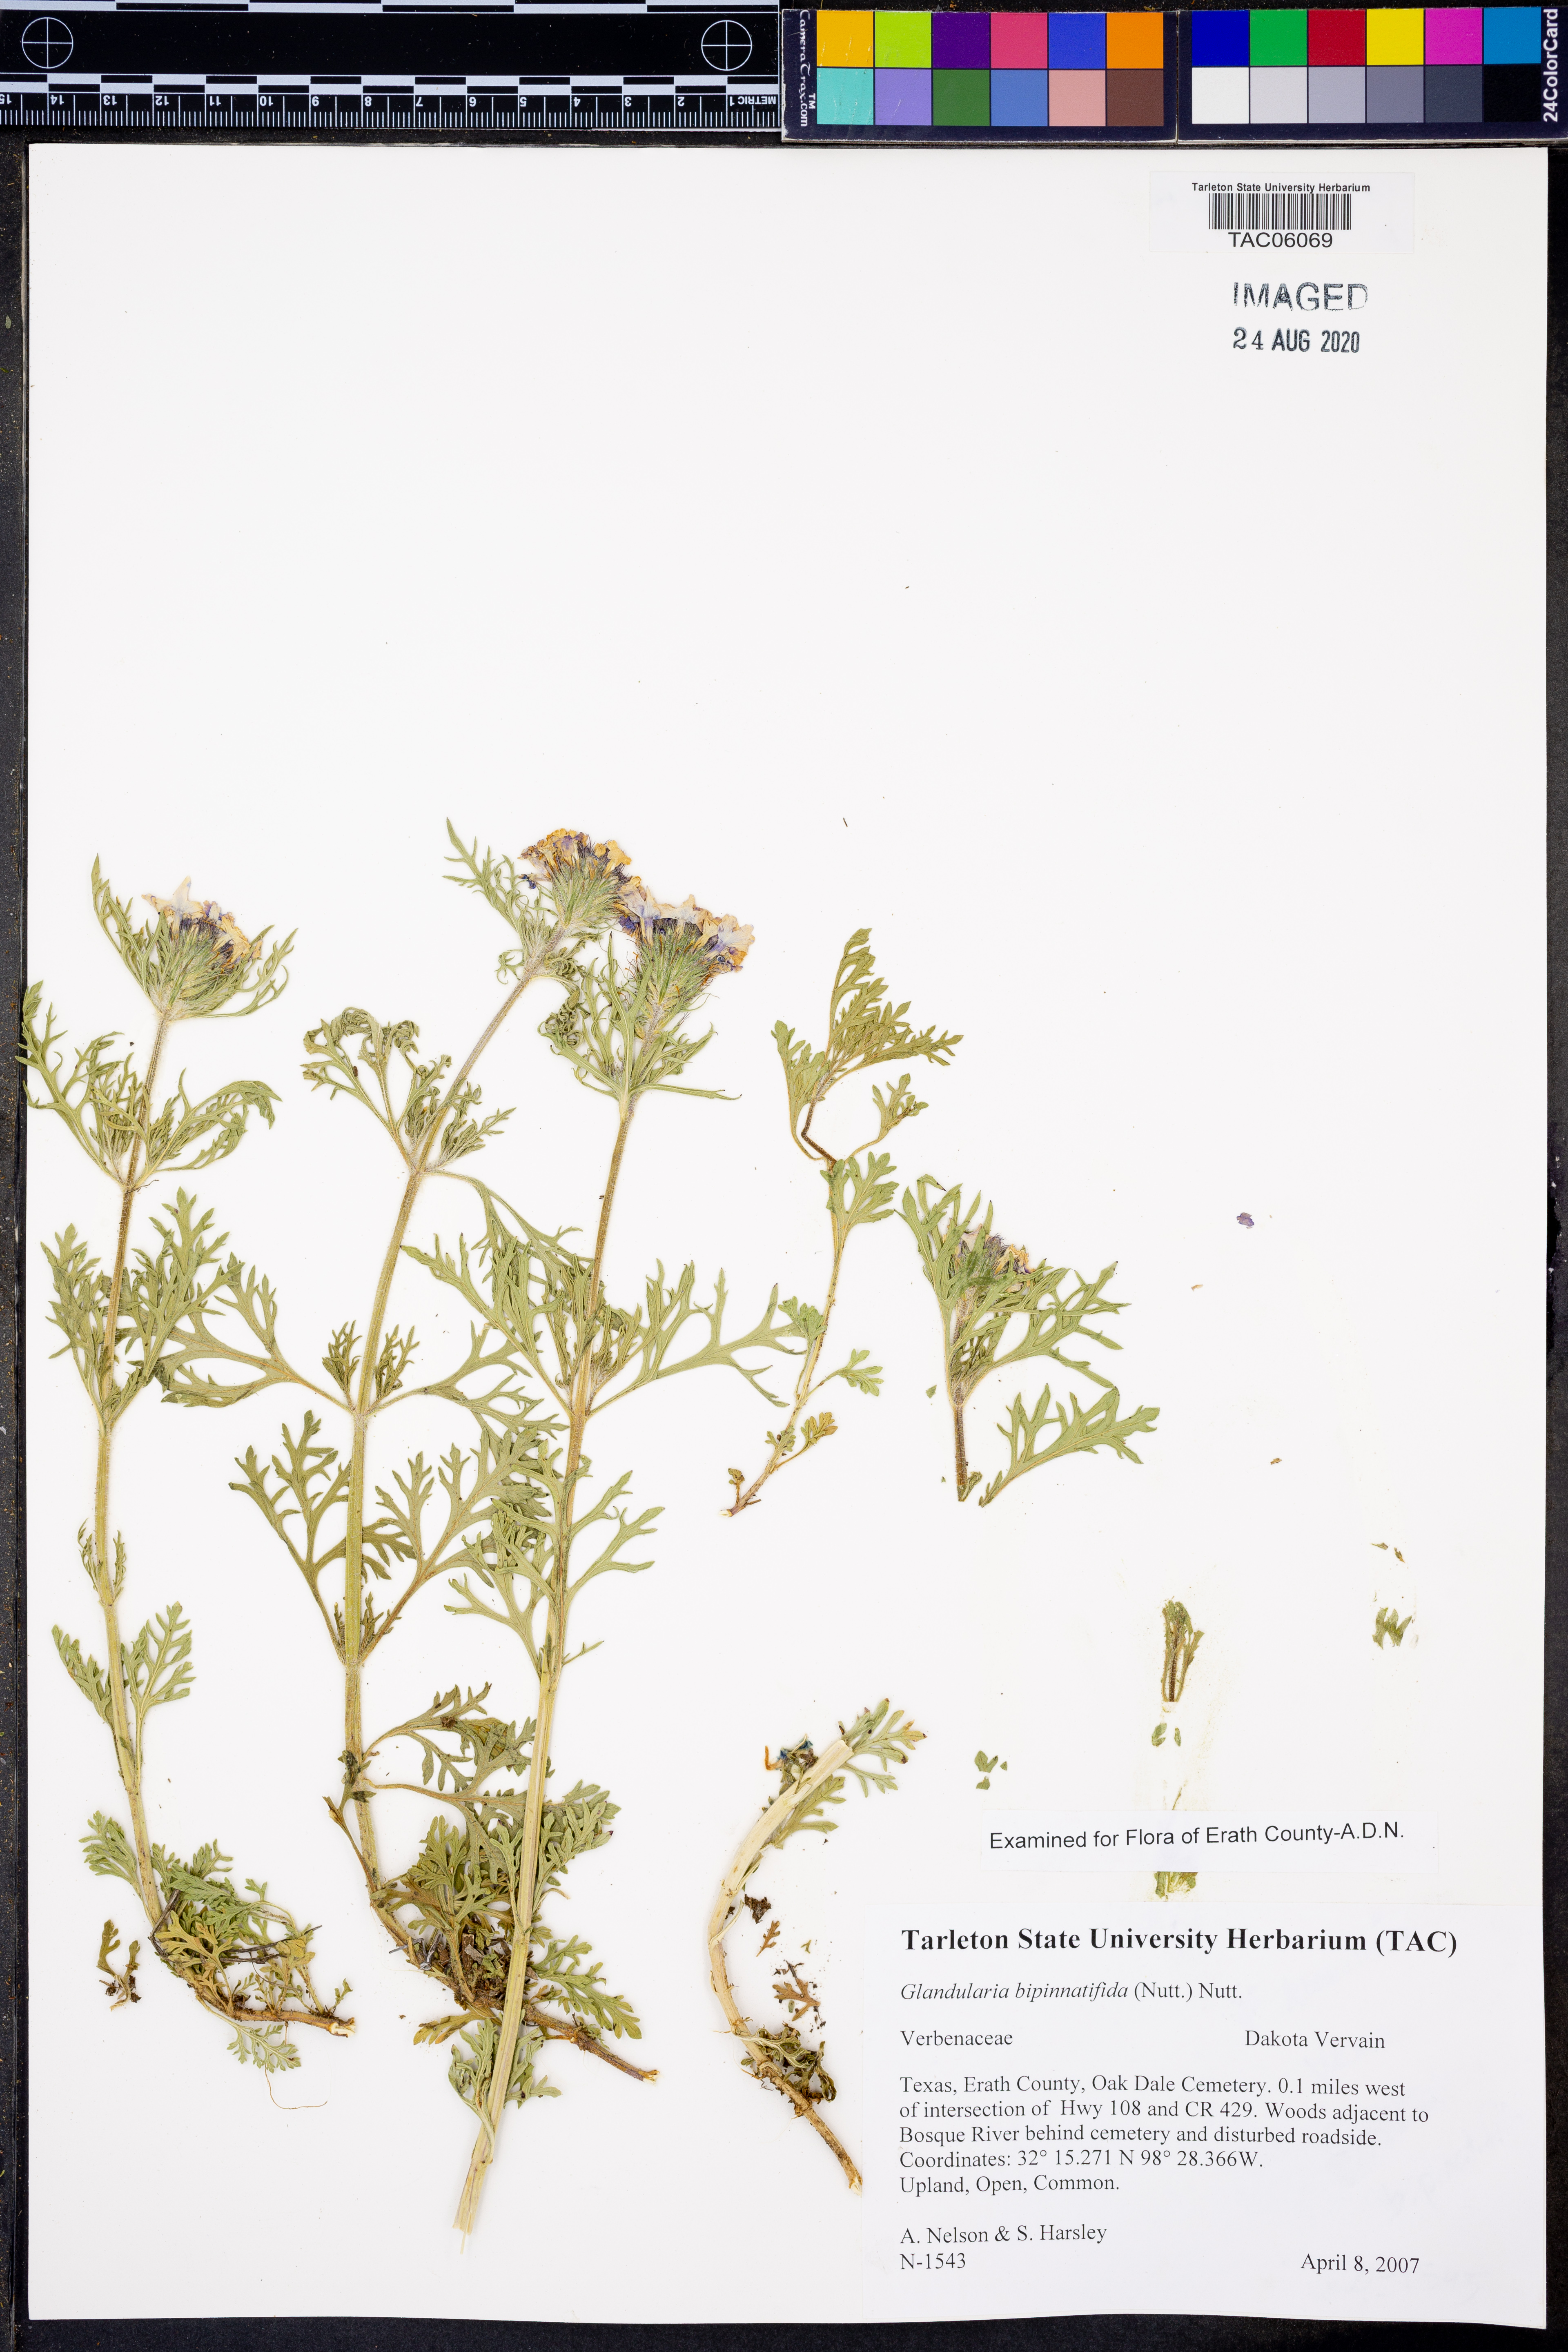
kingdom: Plantae
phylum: Tracheophyta
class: Magnoliopsida
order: Lamiales
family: Verbenaceae
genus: Verbena
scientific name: Verbena bipinnatifida
